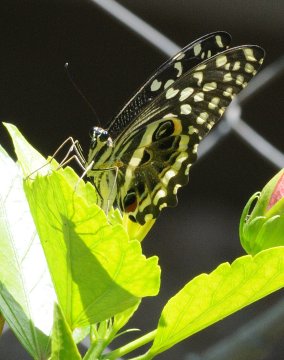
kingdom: Animalia
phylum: Arthropoda
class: Insecta
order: Lepidoptera
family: Papilionidae
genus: Papilio
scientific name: Papilio demodocus
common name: Citrus Swallowtail
